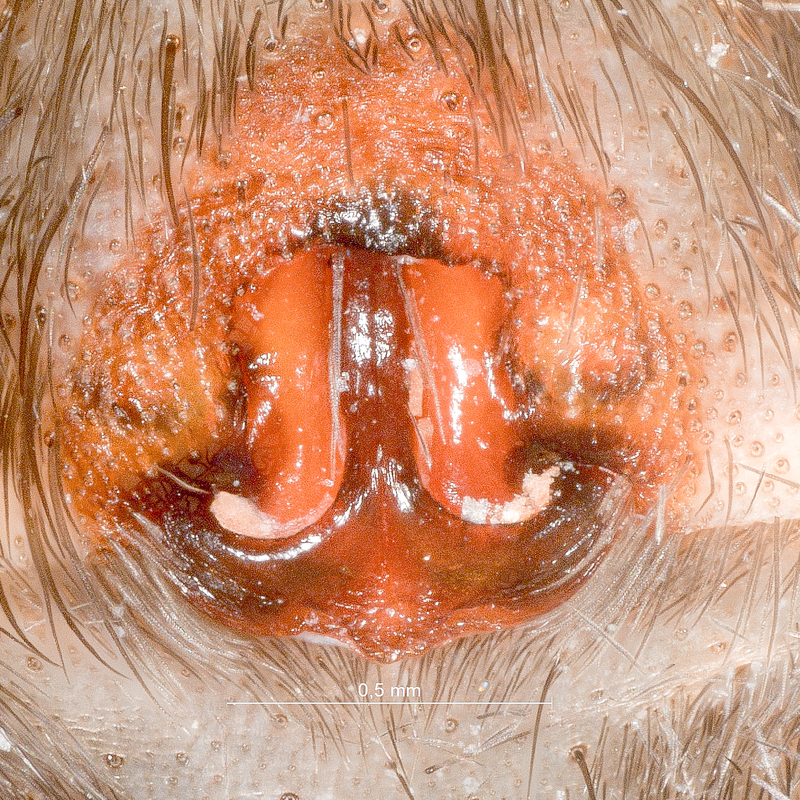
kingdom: Animalia
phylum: Arthropoda
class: Arachnida
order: Araneae
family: Lycosidae
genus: Alopecosa
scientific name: Alopecosa fabrilis
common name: Great fox-spider
